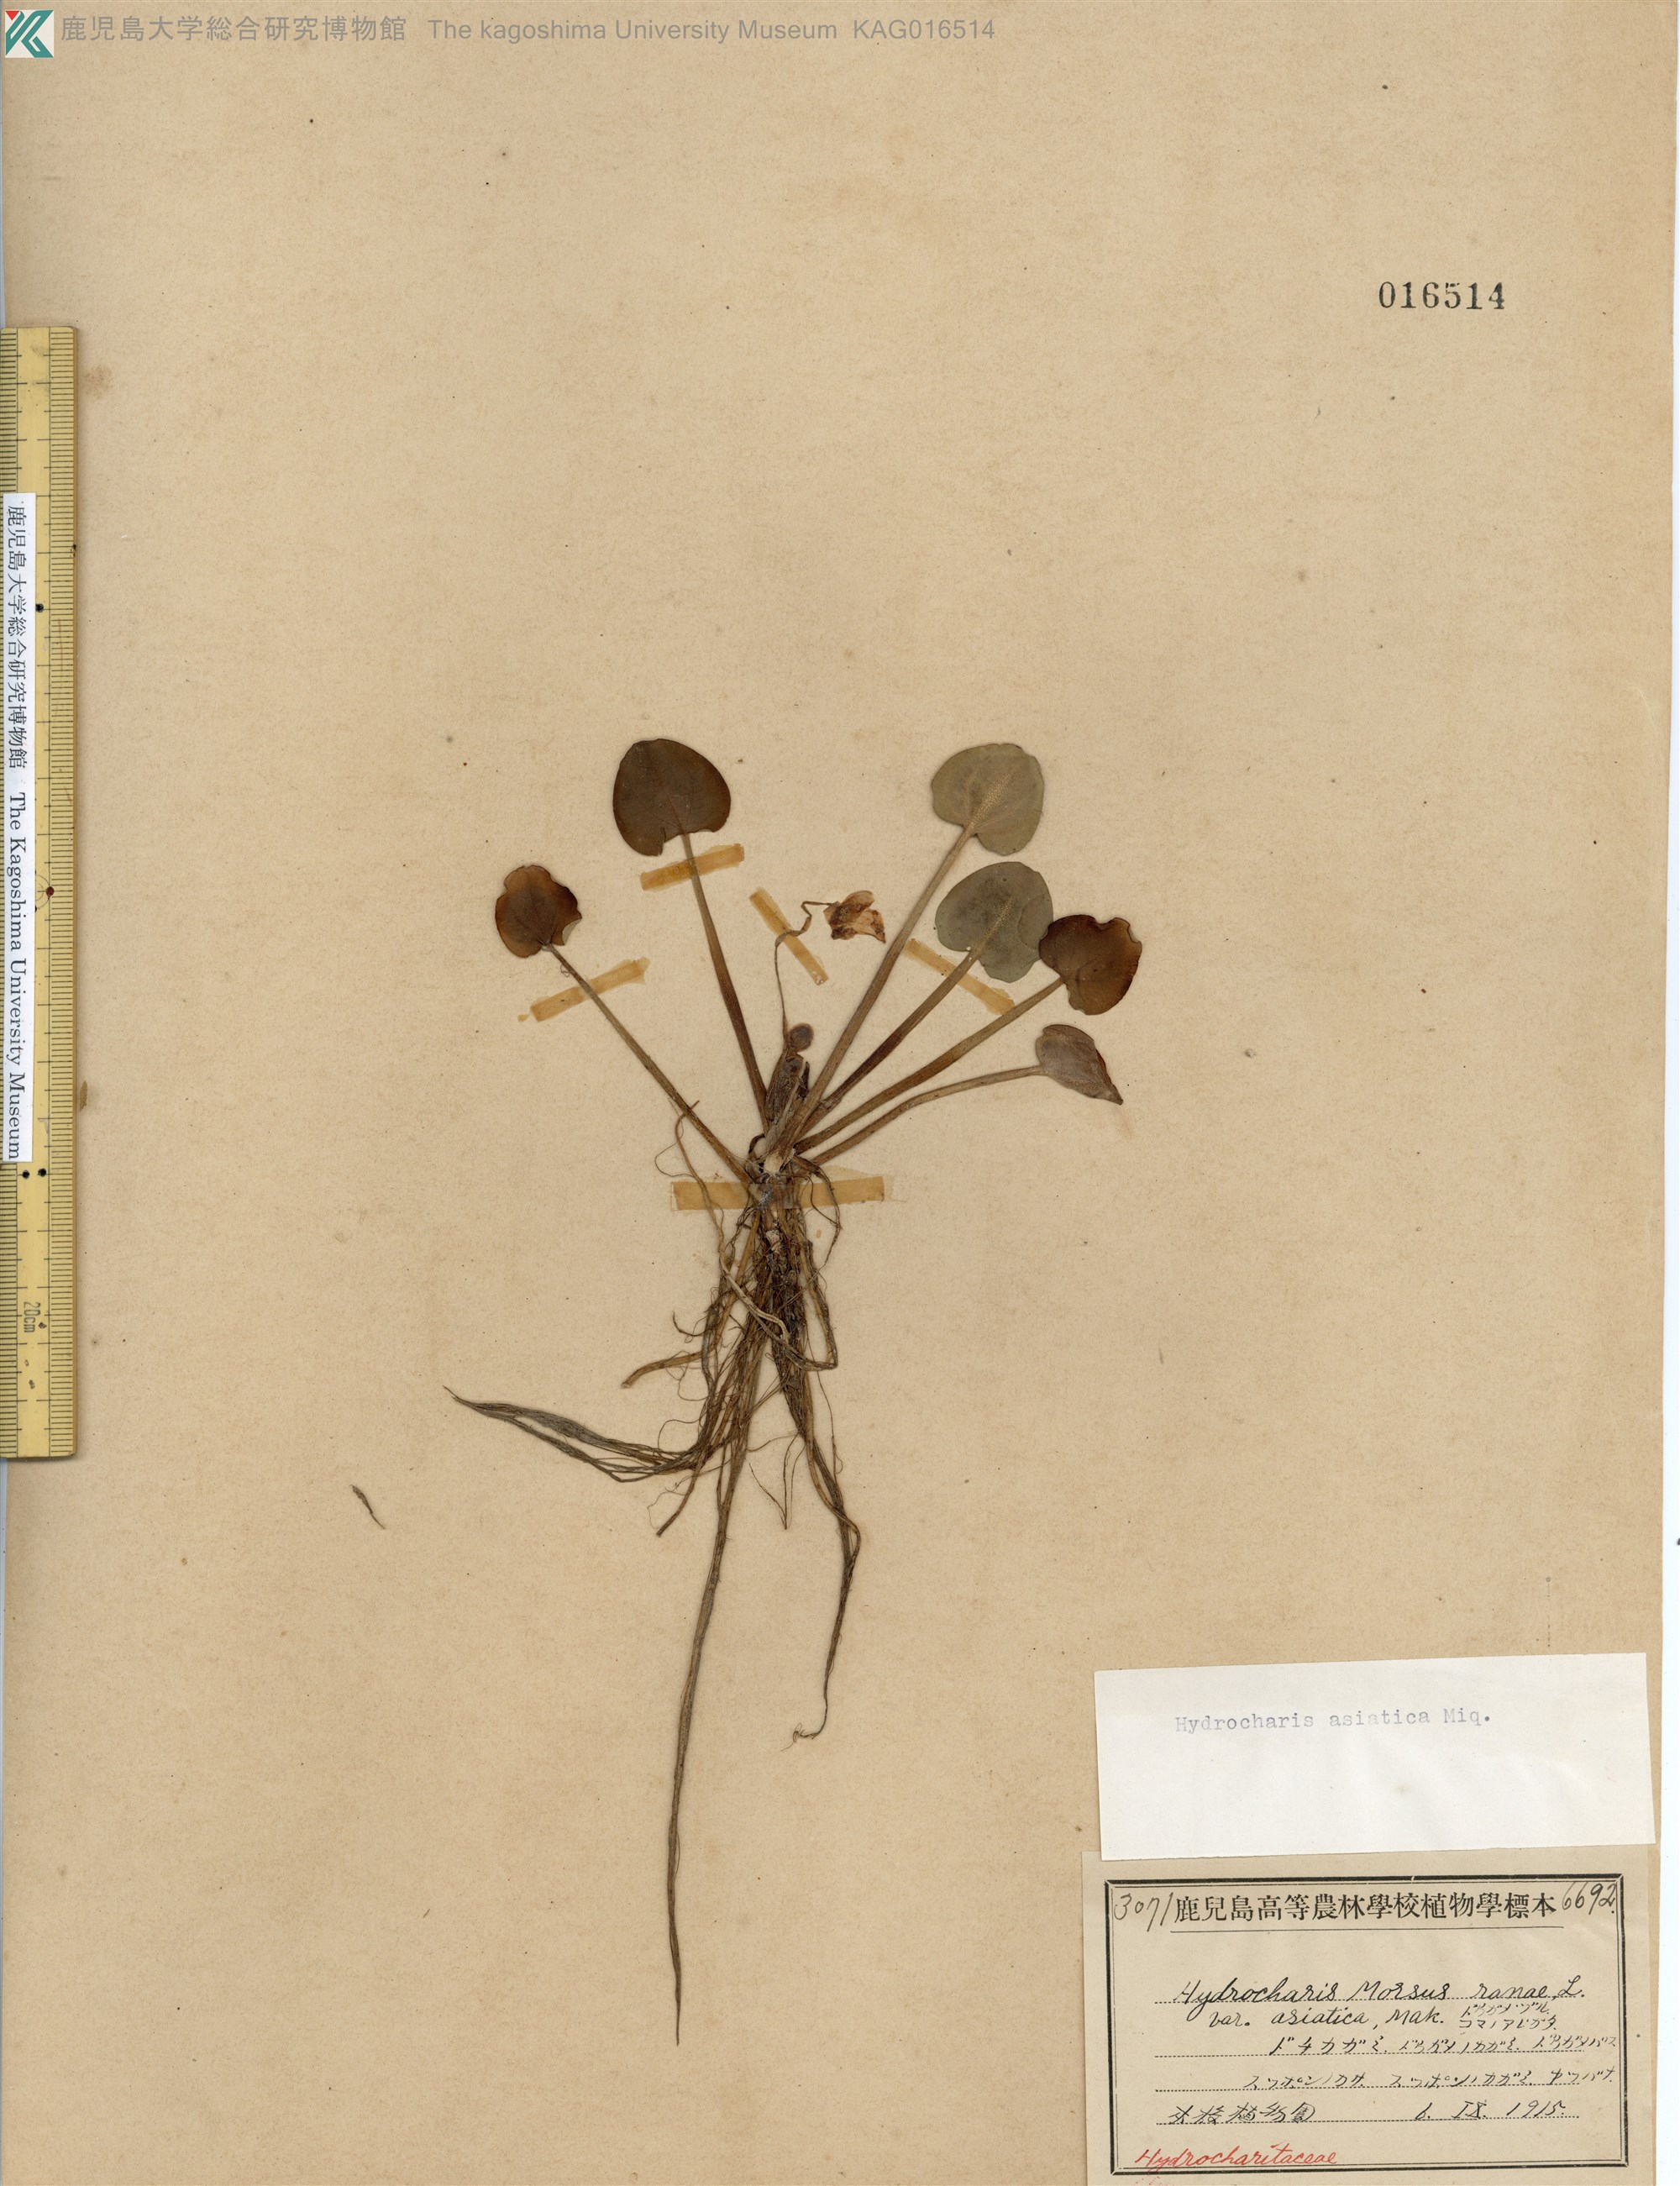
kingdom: Plantae
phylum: Tracheophyta
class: Liliopsida
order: Alismatales
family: Hydrocharitaceae
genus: Hydrocharis
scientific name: Hydrocharis dubia
